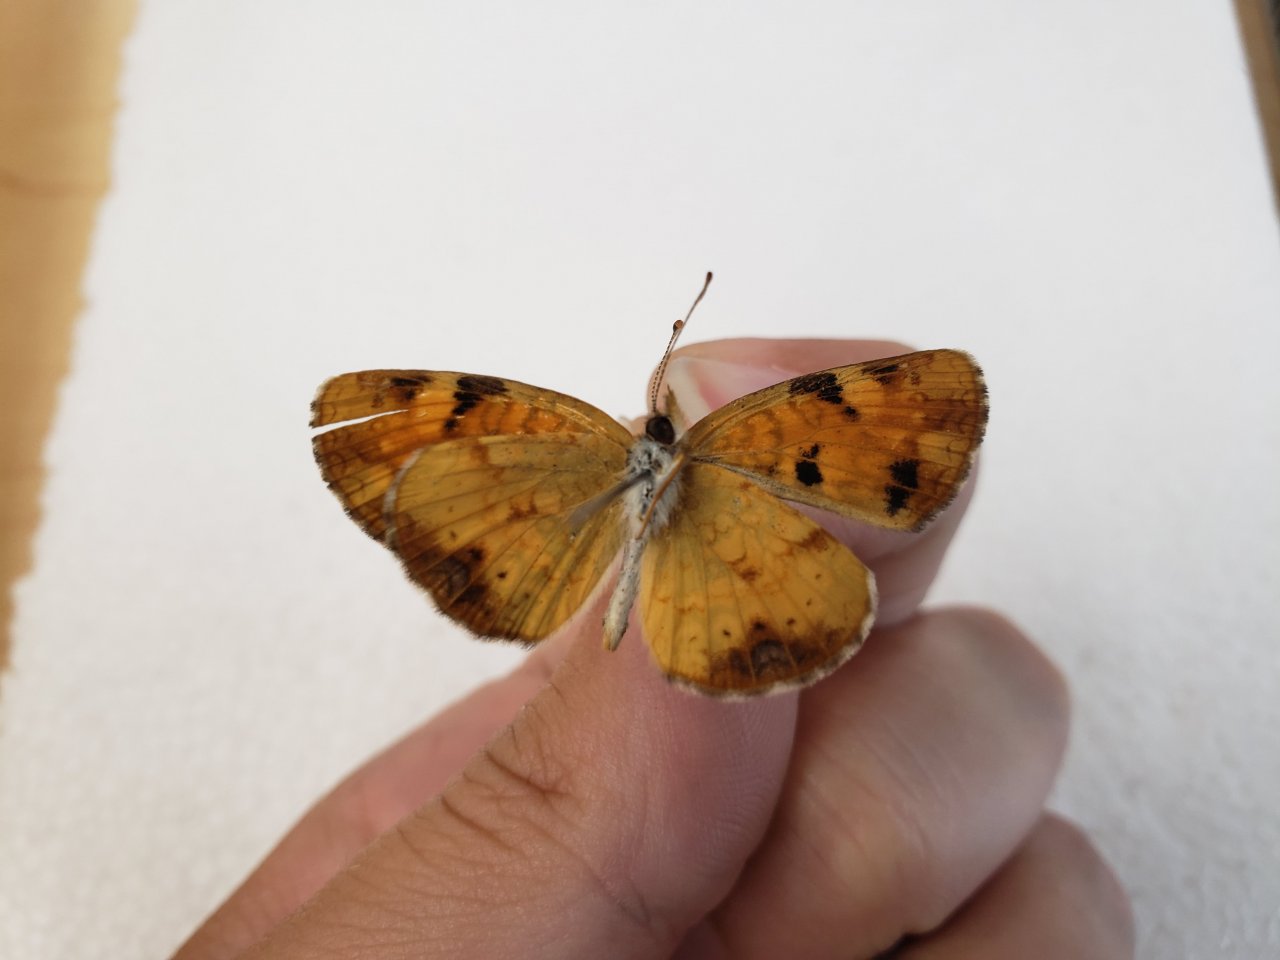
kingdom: Animalia
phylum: Arthropoda
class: Insecta
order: Lepidoptera
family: Nymphalidae
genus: Phyciodes
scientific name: Phyciodes tharos
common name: Northern Crescent
